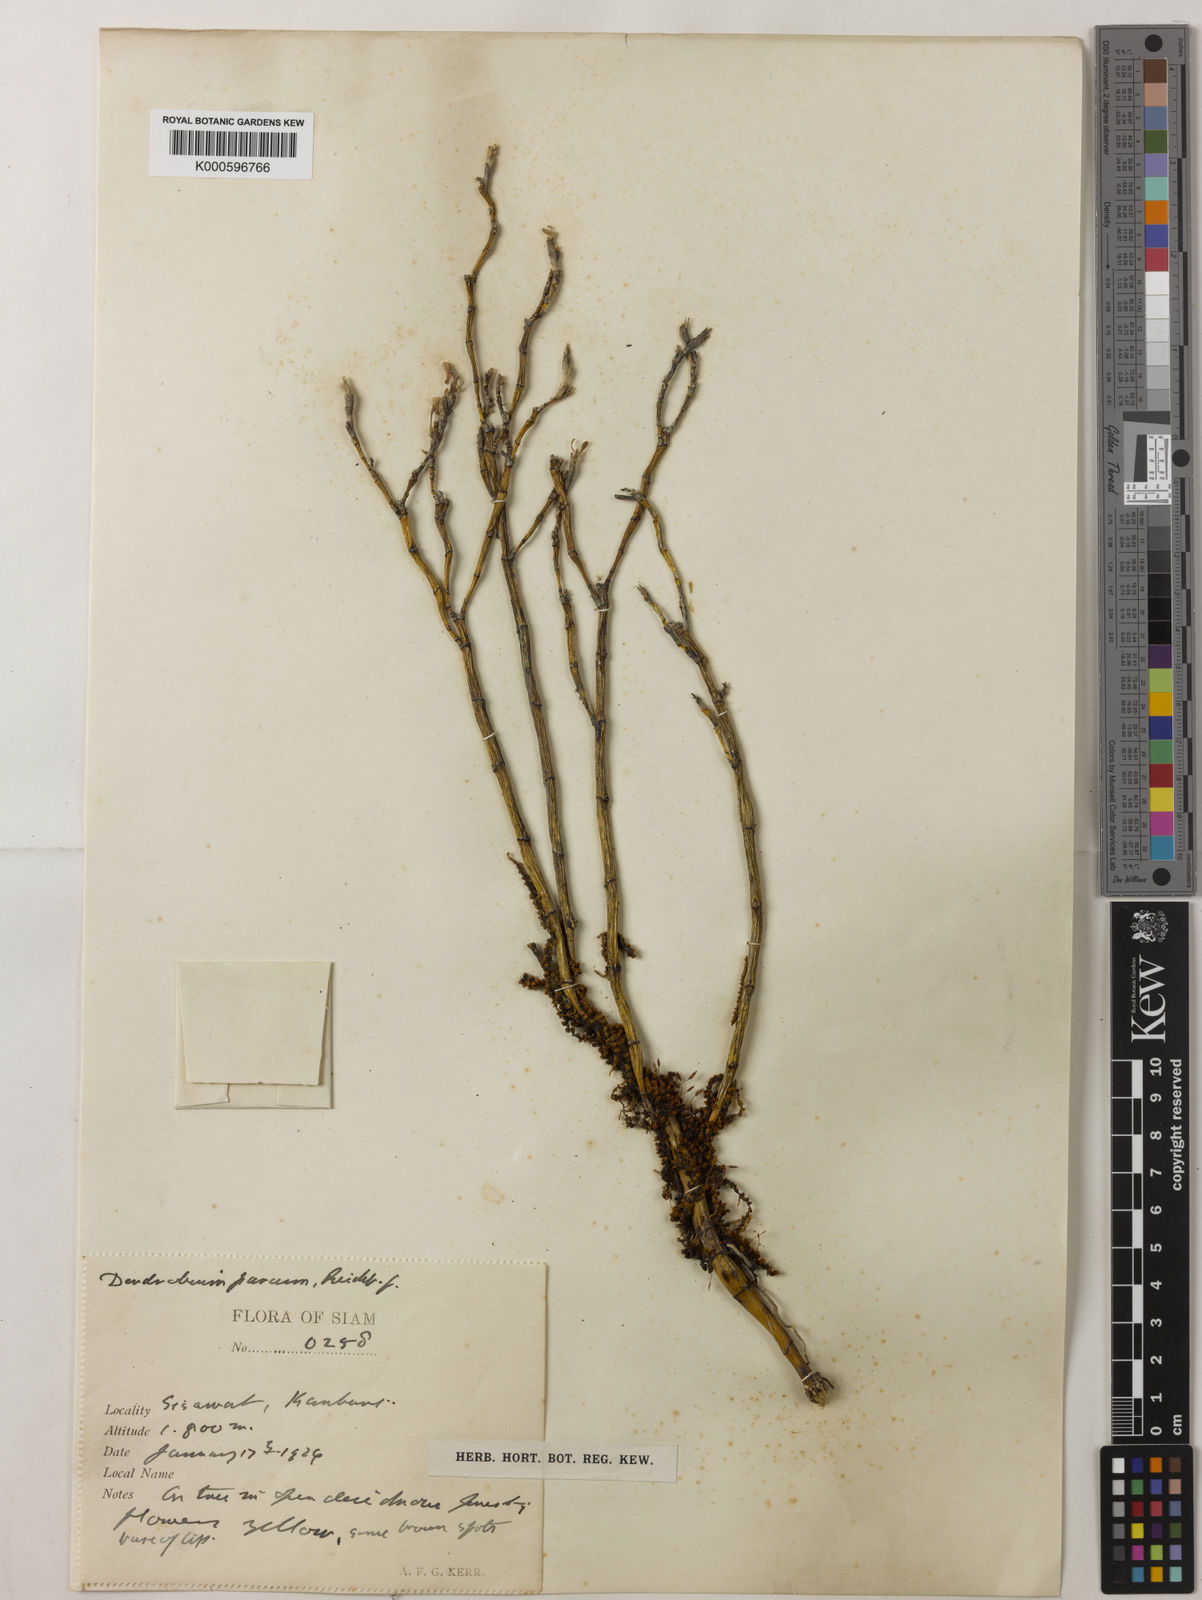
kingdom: Plantae
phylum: Tracheophyta
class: Liliopsida
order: Asparagales
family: Orchidaceae
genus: Dendrobium
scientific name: Dendrobium parcum
